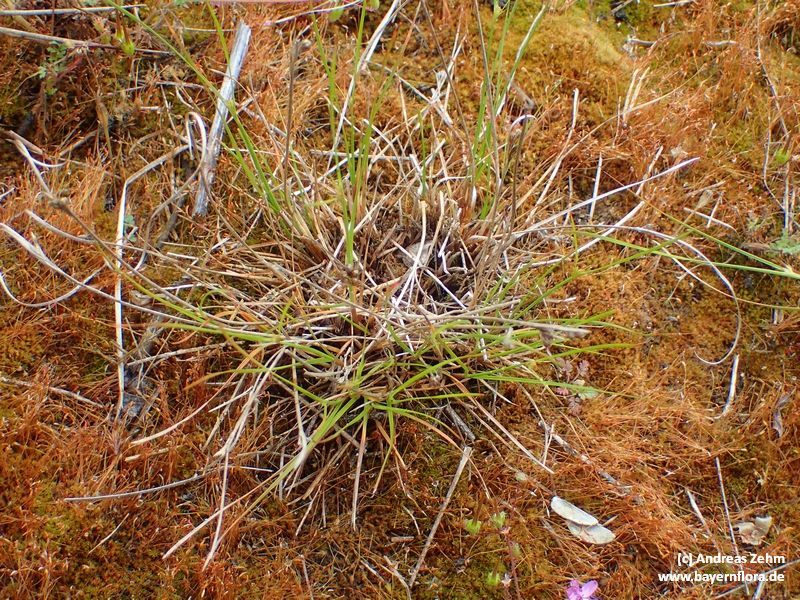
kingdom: Plantae
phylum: Tracheophyta
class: Liliopsida
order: Poales
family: Juncaceae
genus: Juncus
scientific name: Juncus tenuis
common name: Slender rush
